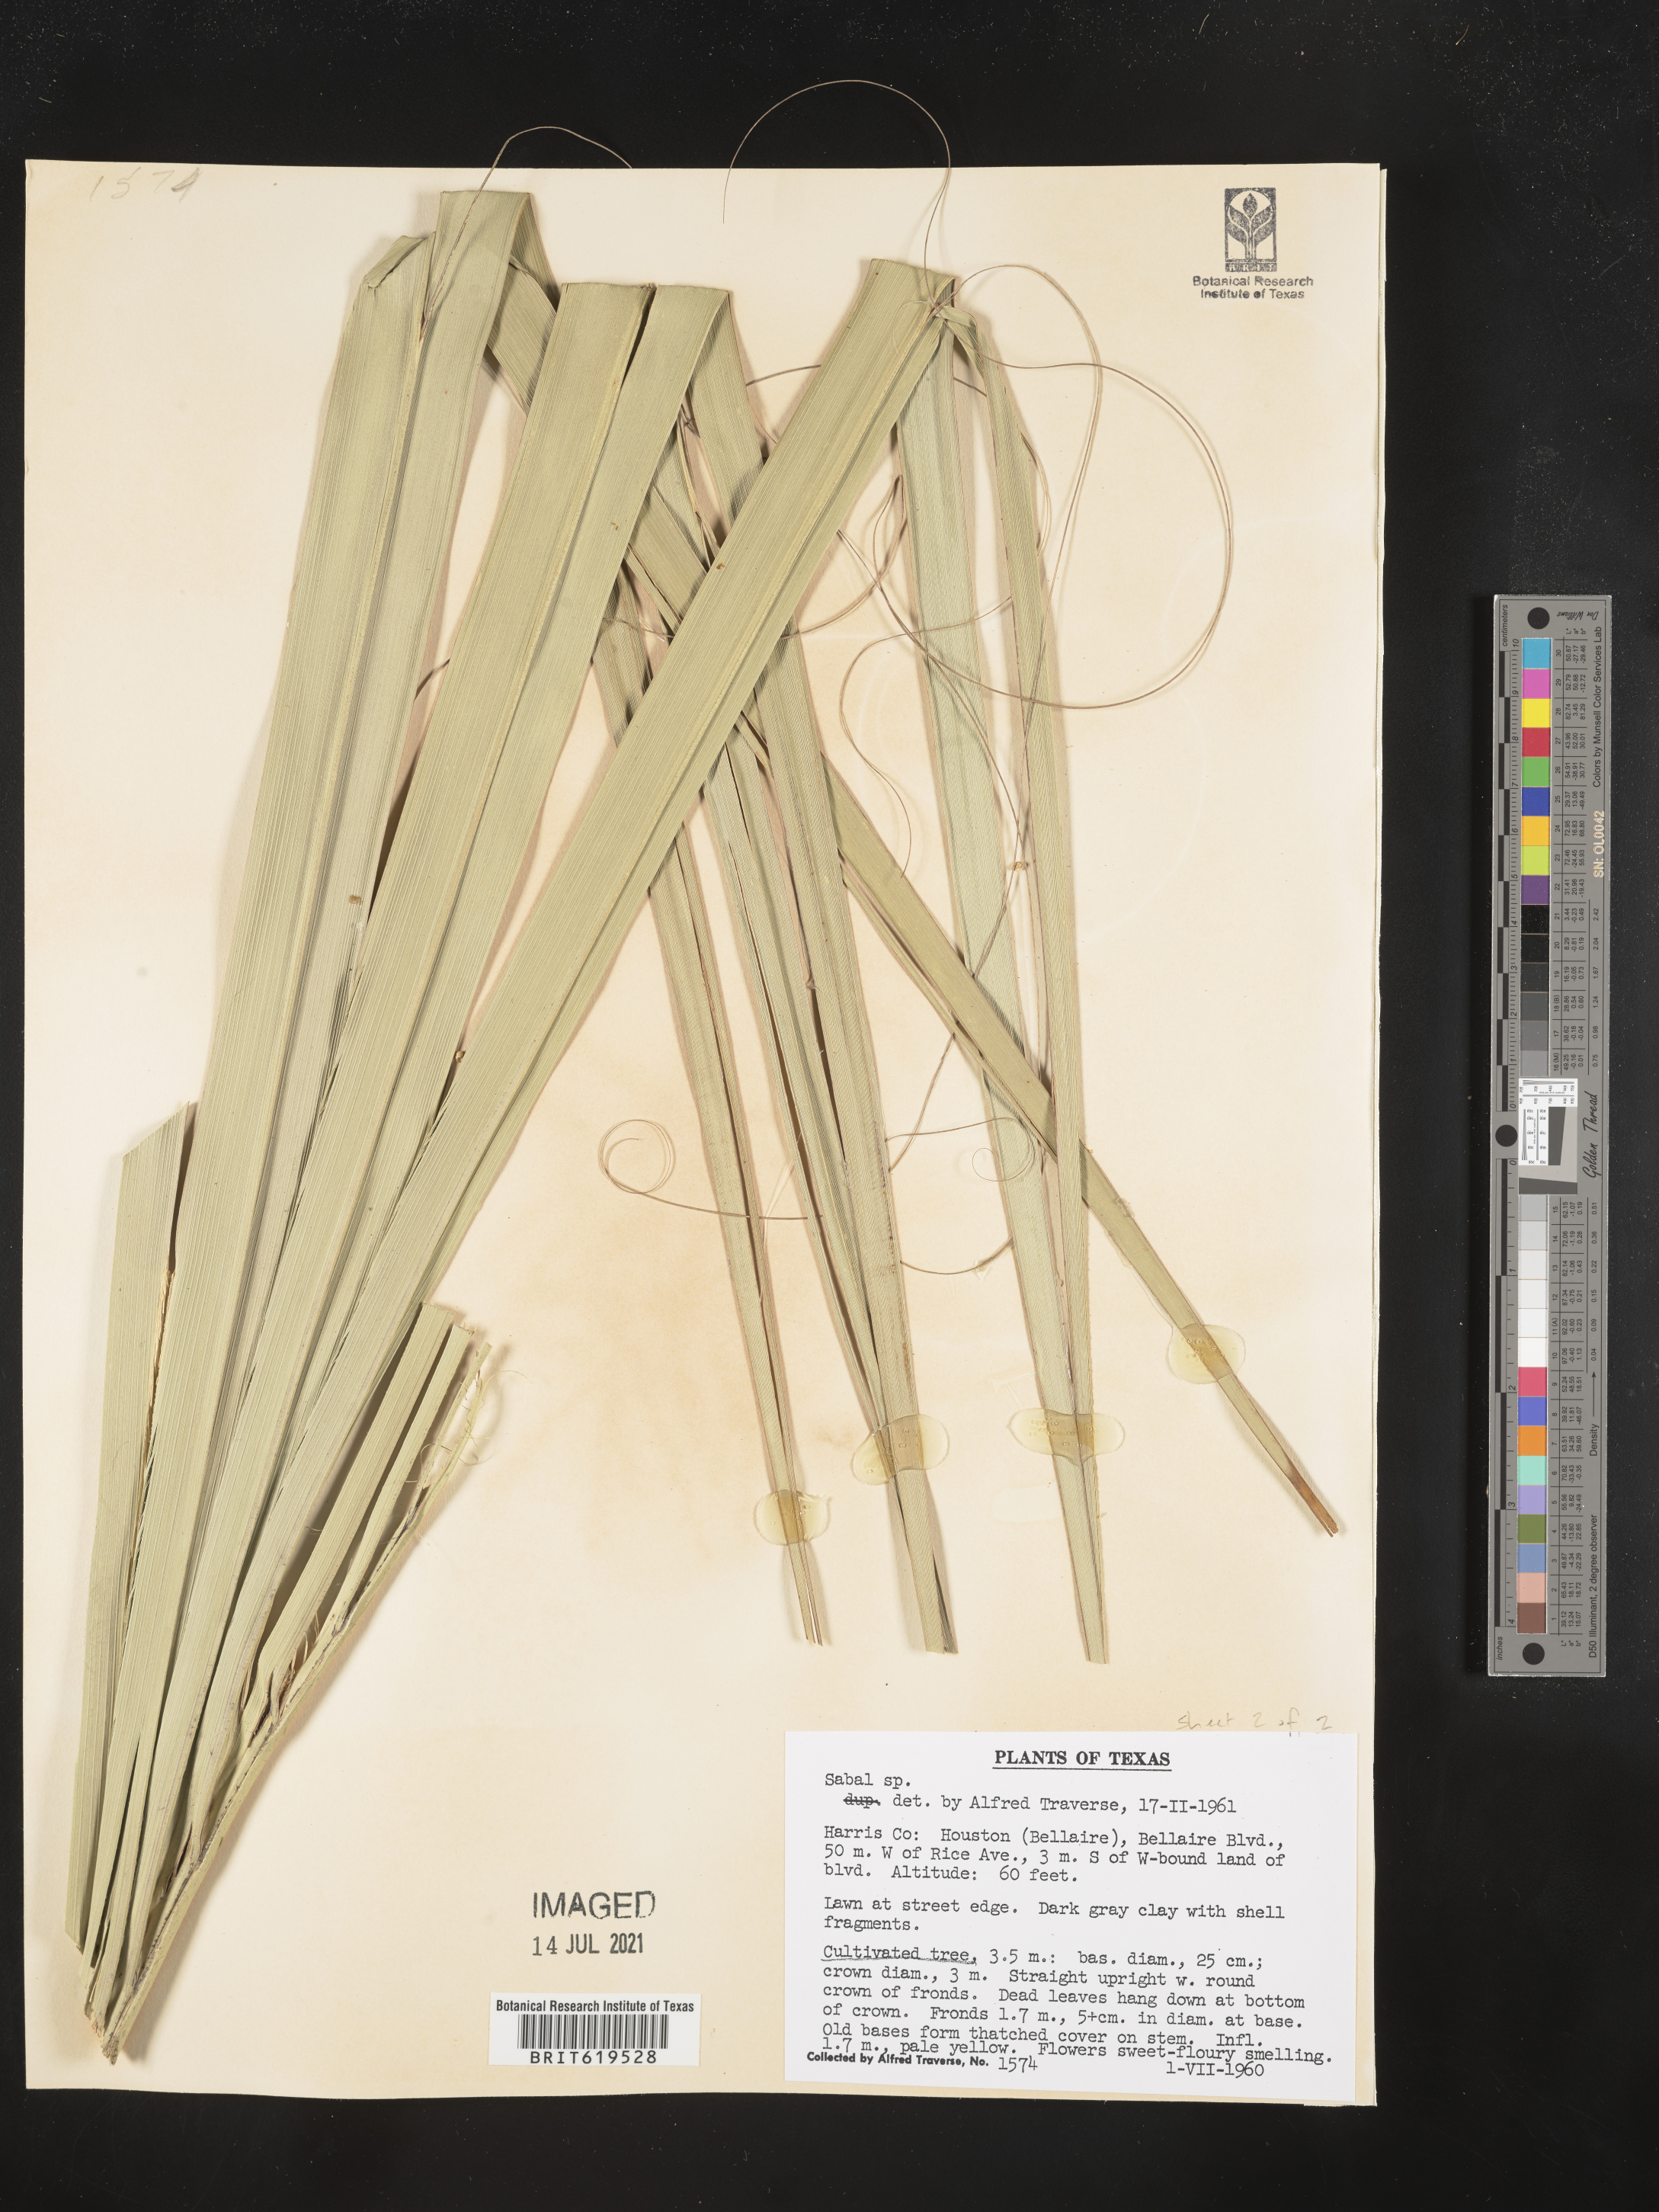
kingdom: Plantae
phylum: Tracheophyta
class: Liliopsida
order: Arecales
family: Arecaceae
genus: Sabal
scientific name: Sabal
